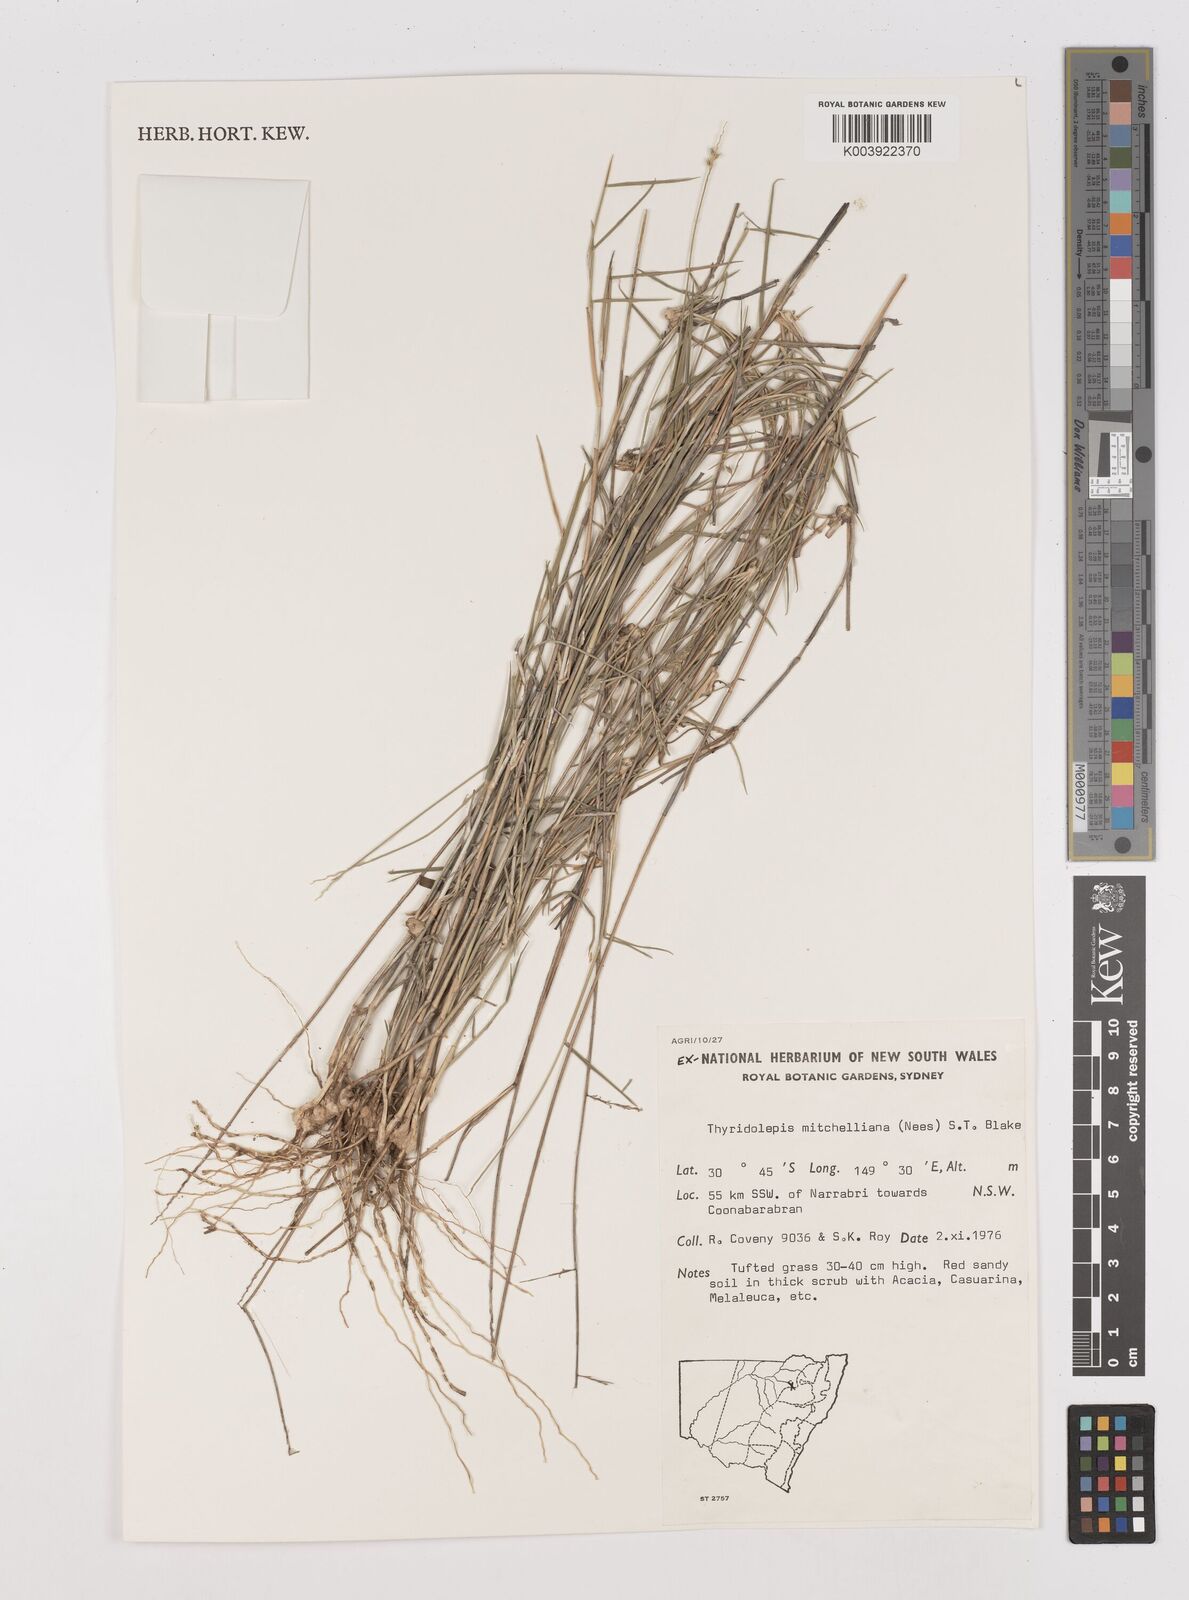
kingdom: Plantae
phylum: Tracheophyta
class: Liliopsida
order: Poales
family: Poaceae
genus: Thyridolepis
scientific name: Thyridolepis mitchelliana
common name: Rock tassel grass
